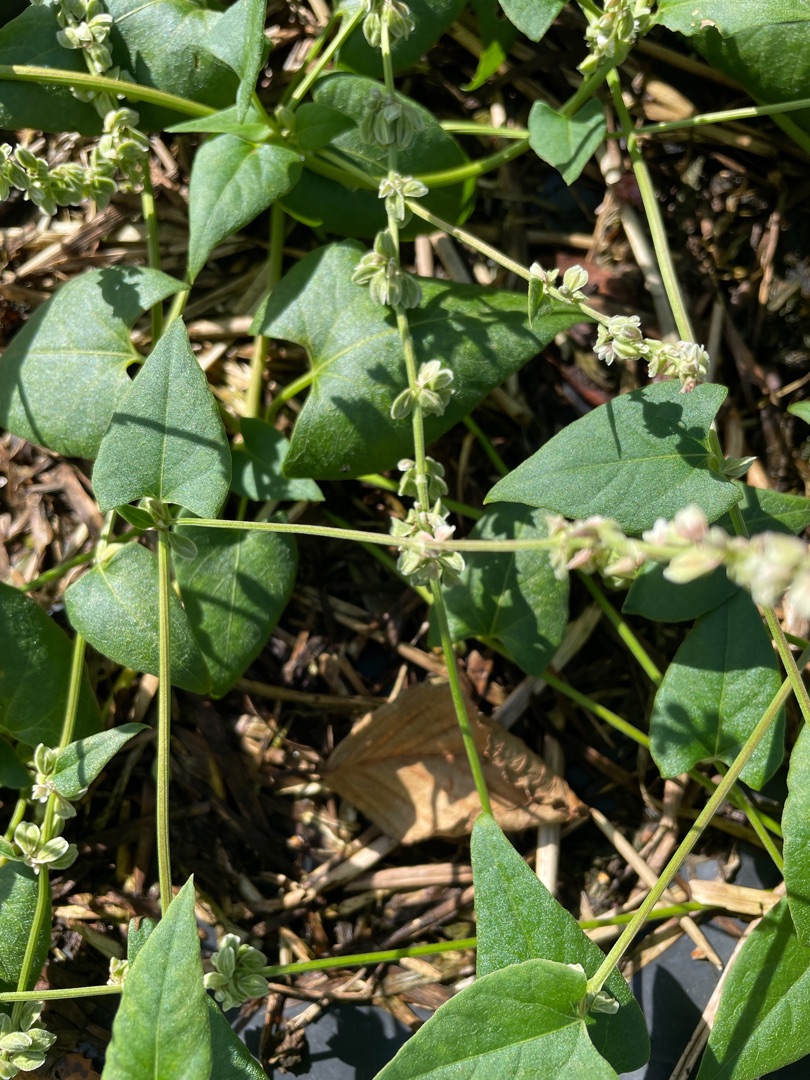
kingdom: Plantae
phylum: Tracheophyta
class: Magnoliopsida
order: Caryophyllales
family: Polygonaceae
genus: Fallopia
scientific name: Fallopia convolvulus
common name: Snerle-pileurt
